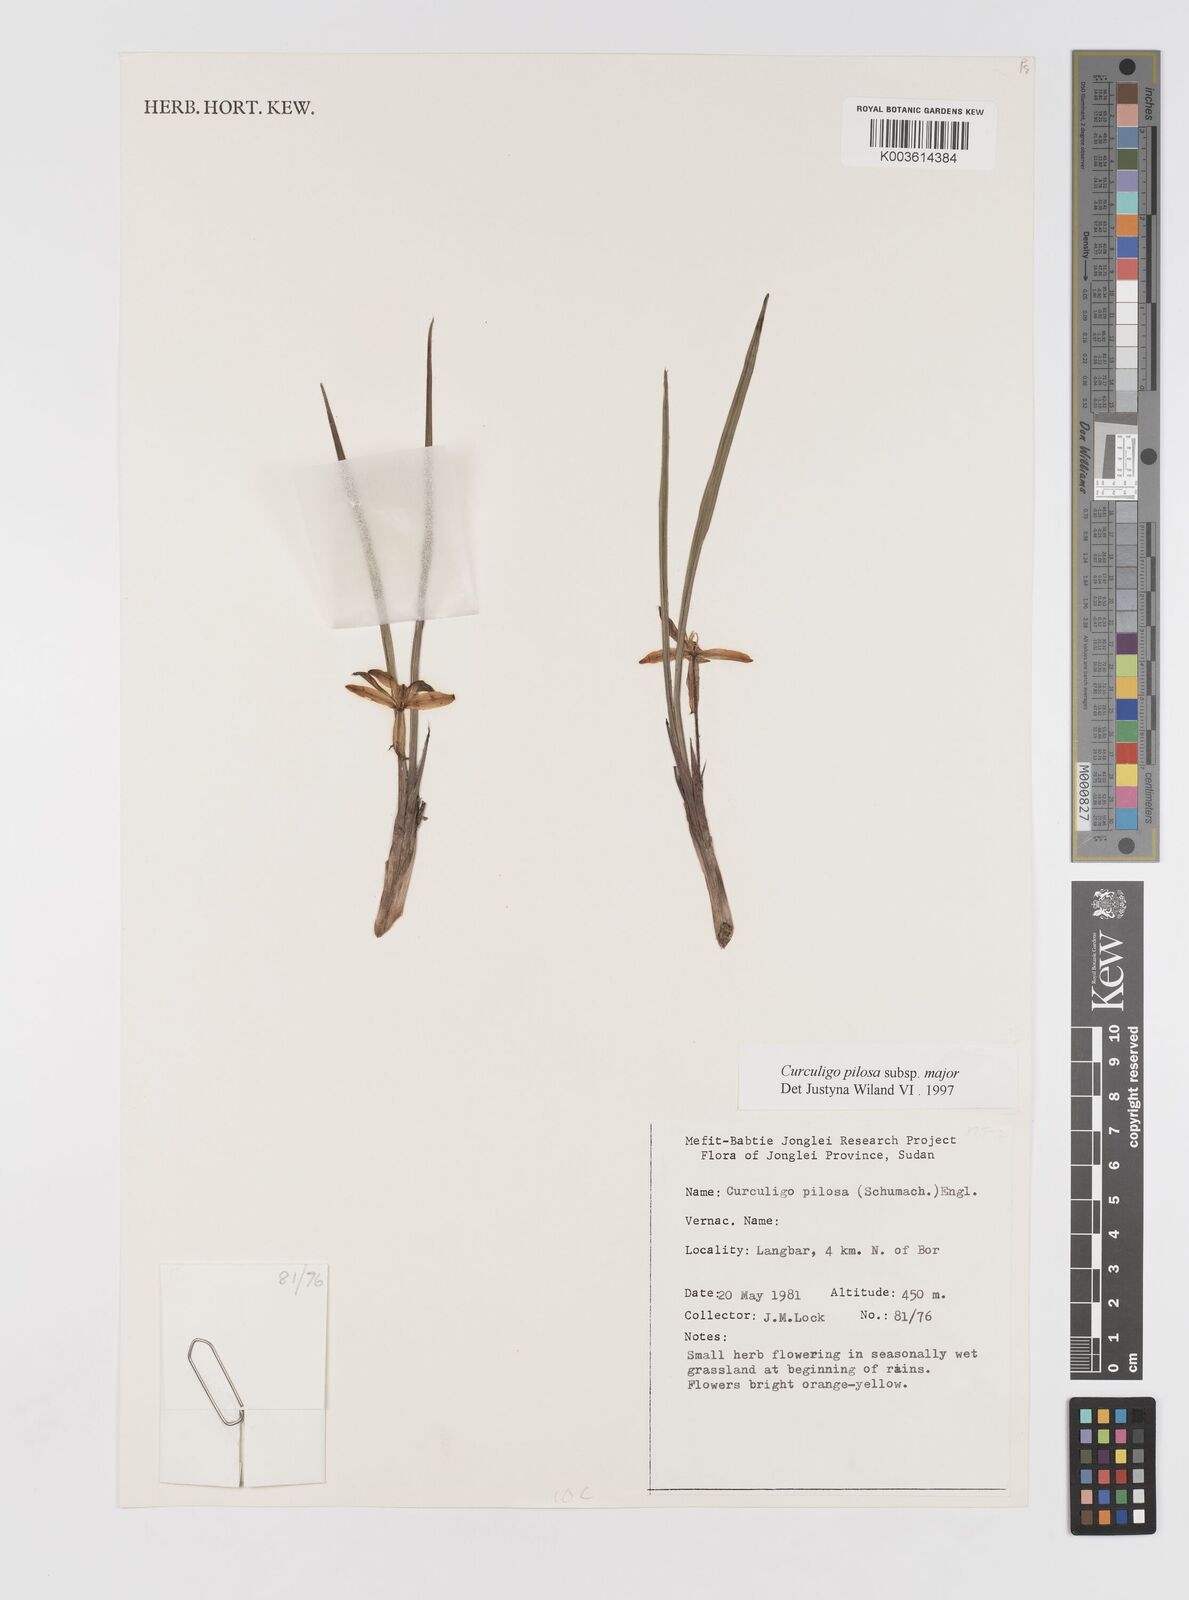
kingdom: Plantae
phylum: Tracheophyta
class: Liliopsida
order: Asparagales
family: Hypoxidaceae
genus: Curculigo
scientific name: Curculigo pilosa
